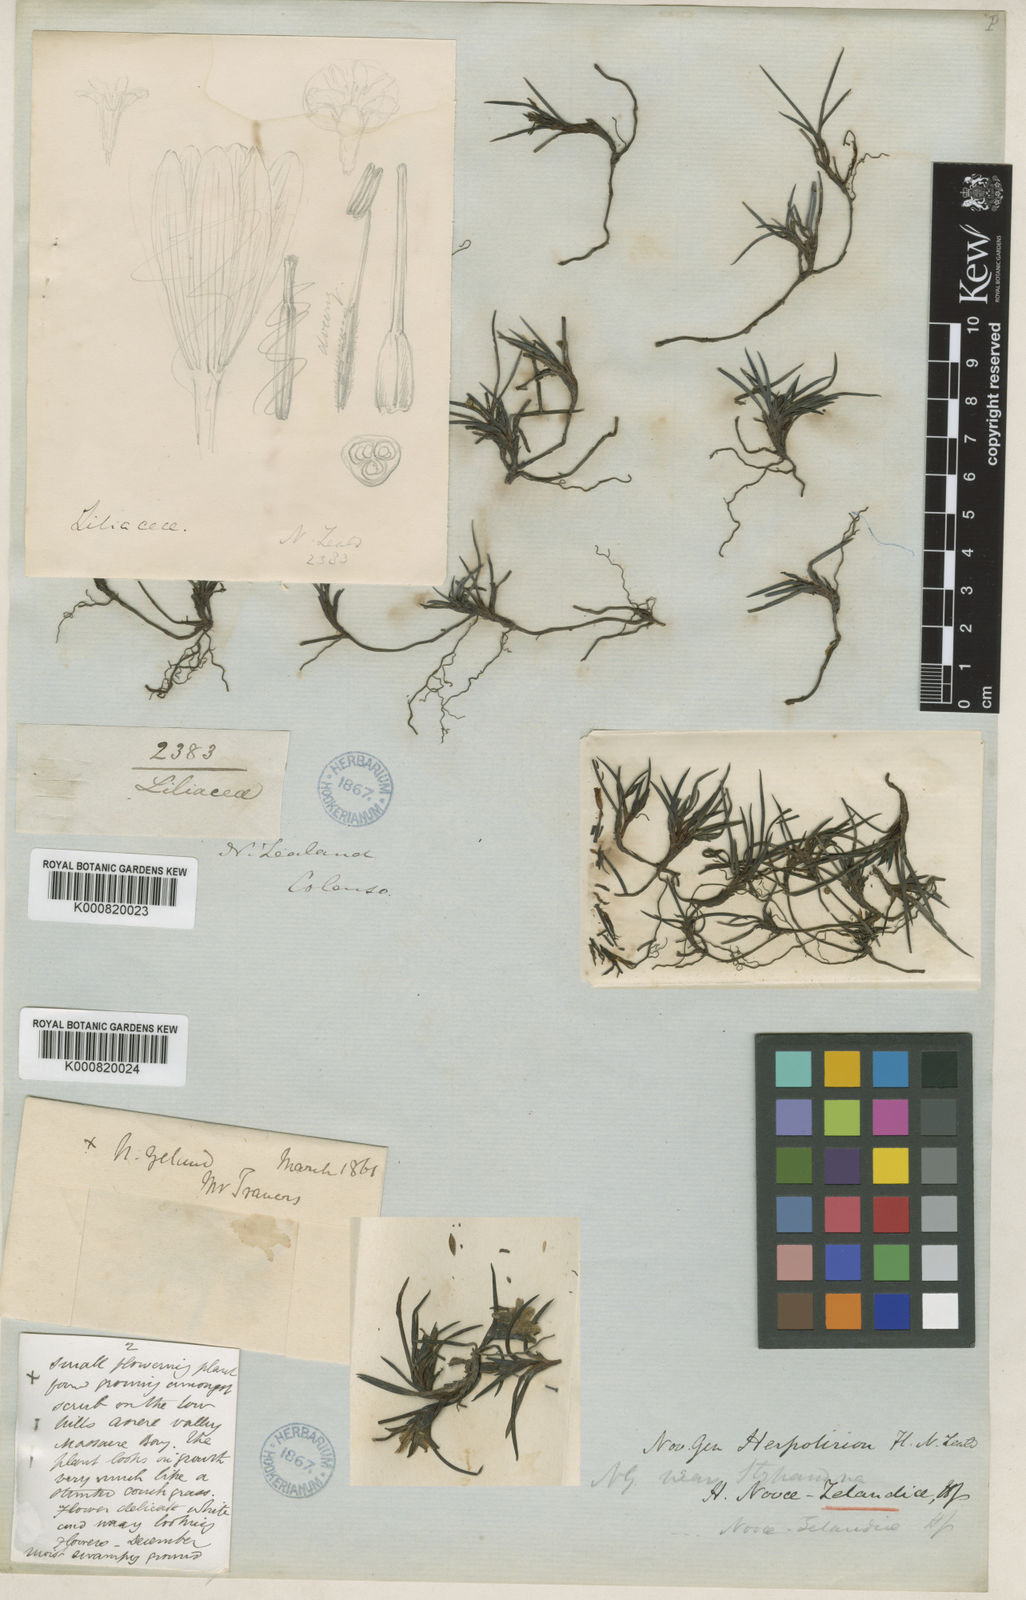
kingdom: Plantae
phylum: Tracheophyta
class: Liliopsida
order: Asparagales
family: Asphodelaceae
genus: Herpolirion
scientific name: Herpolirion novae-zelandiae
